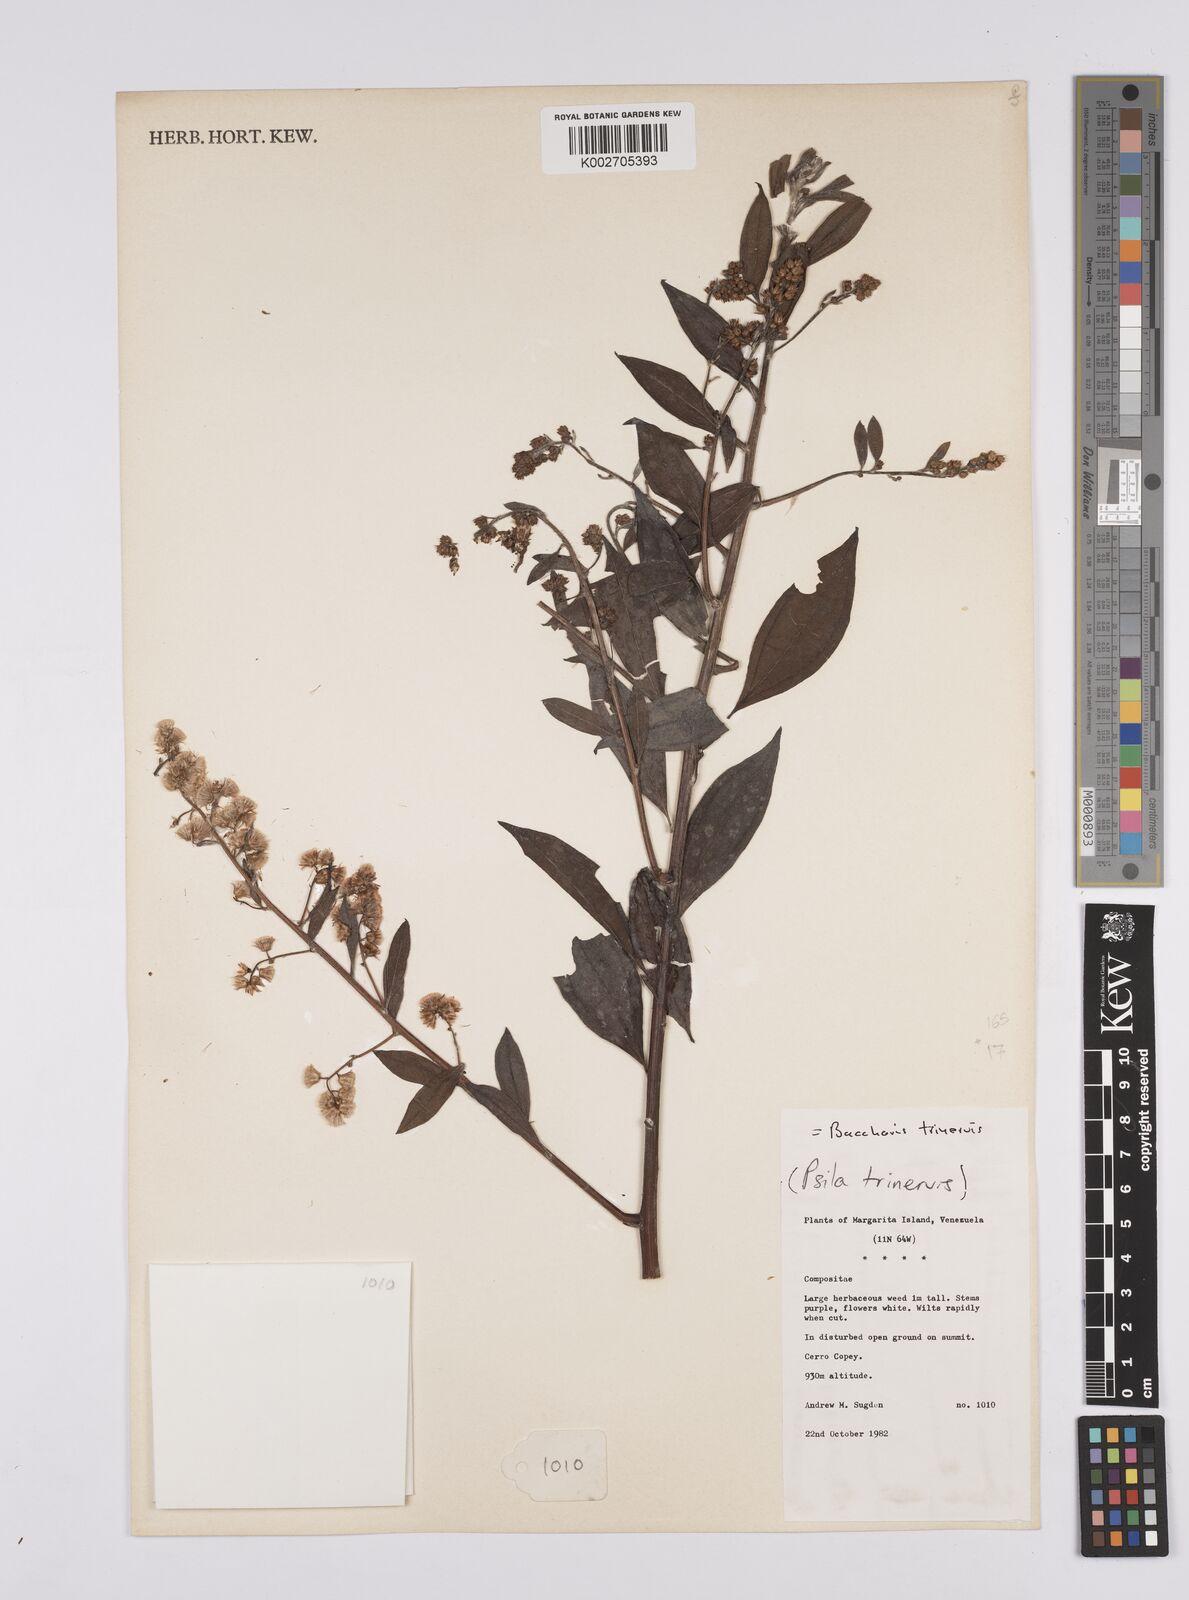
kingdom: Plantae
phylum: Tracheophyta
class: Magnoliopsida
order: Asterales
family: Asteraceae
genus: Baccharis
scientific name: Baccharis trinervis
